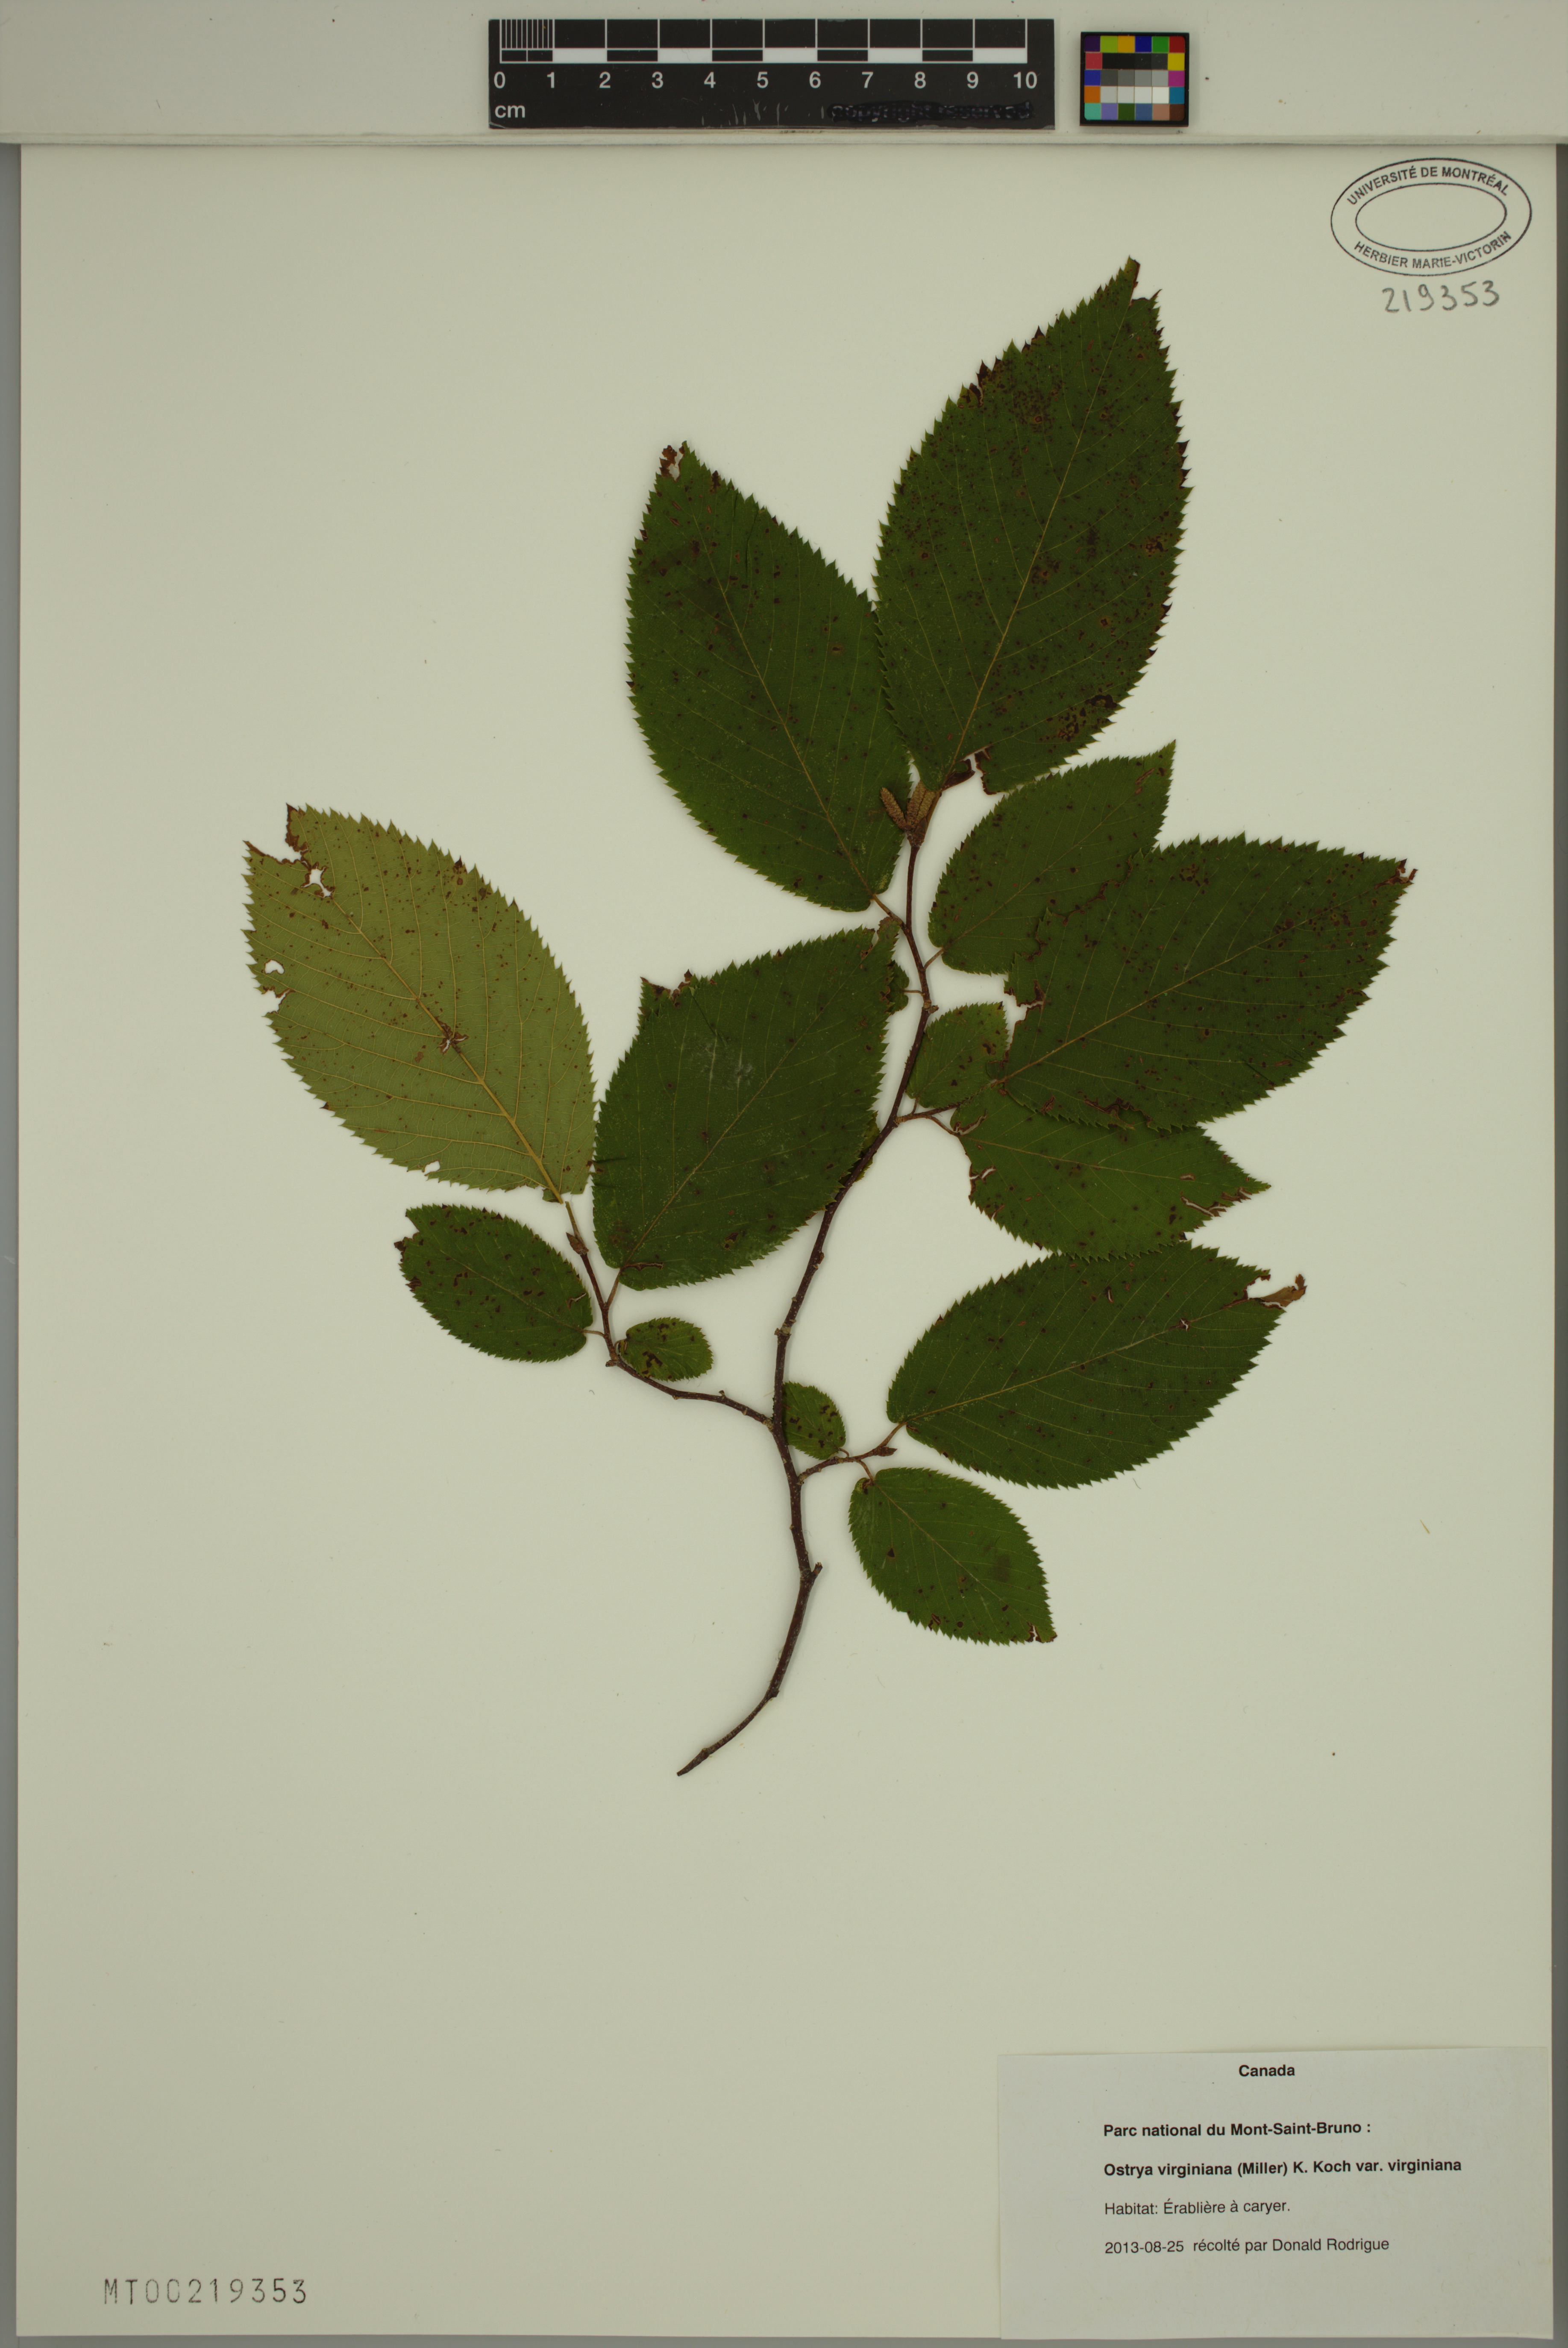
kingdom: Plantae
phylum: Tracheophyta
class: Magnoliopsida
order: Fagales
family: Betulaceae
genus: Ostrya
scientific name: Ostrya virginiana
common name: Ironwood
